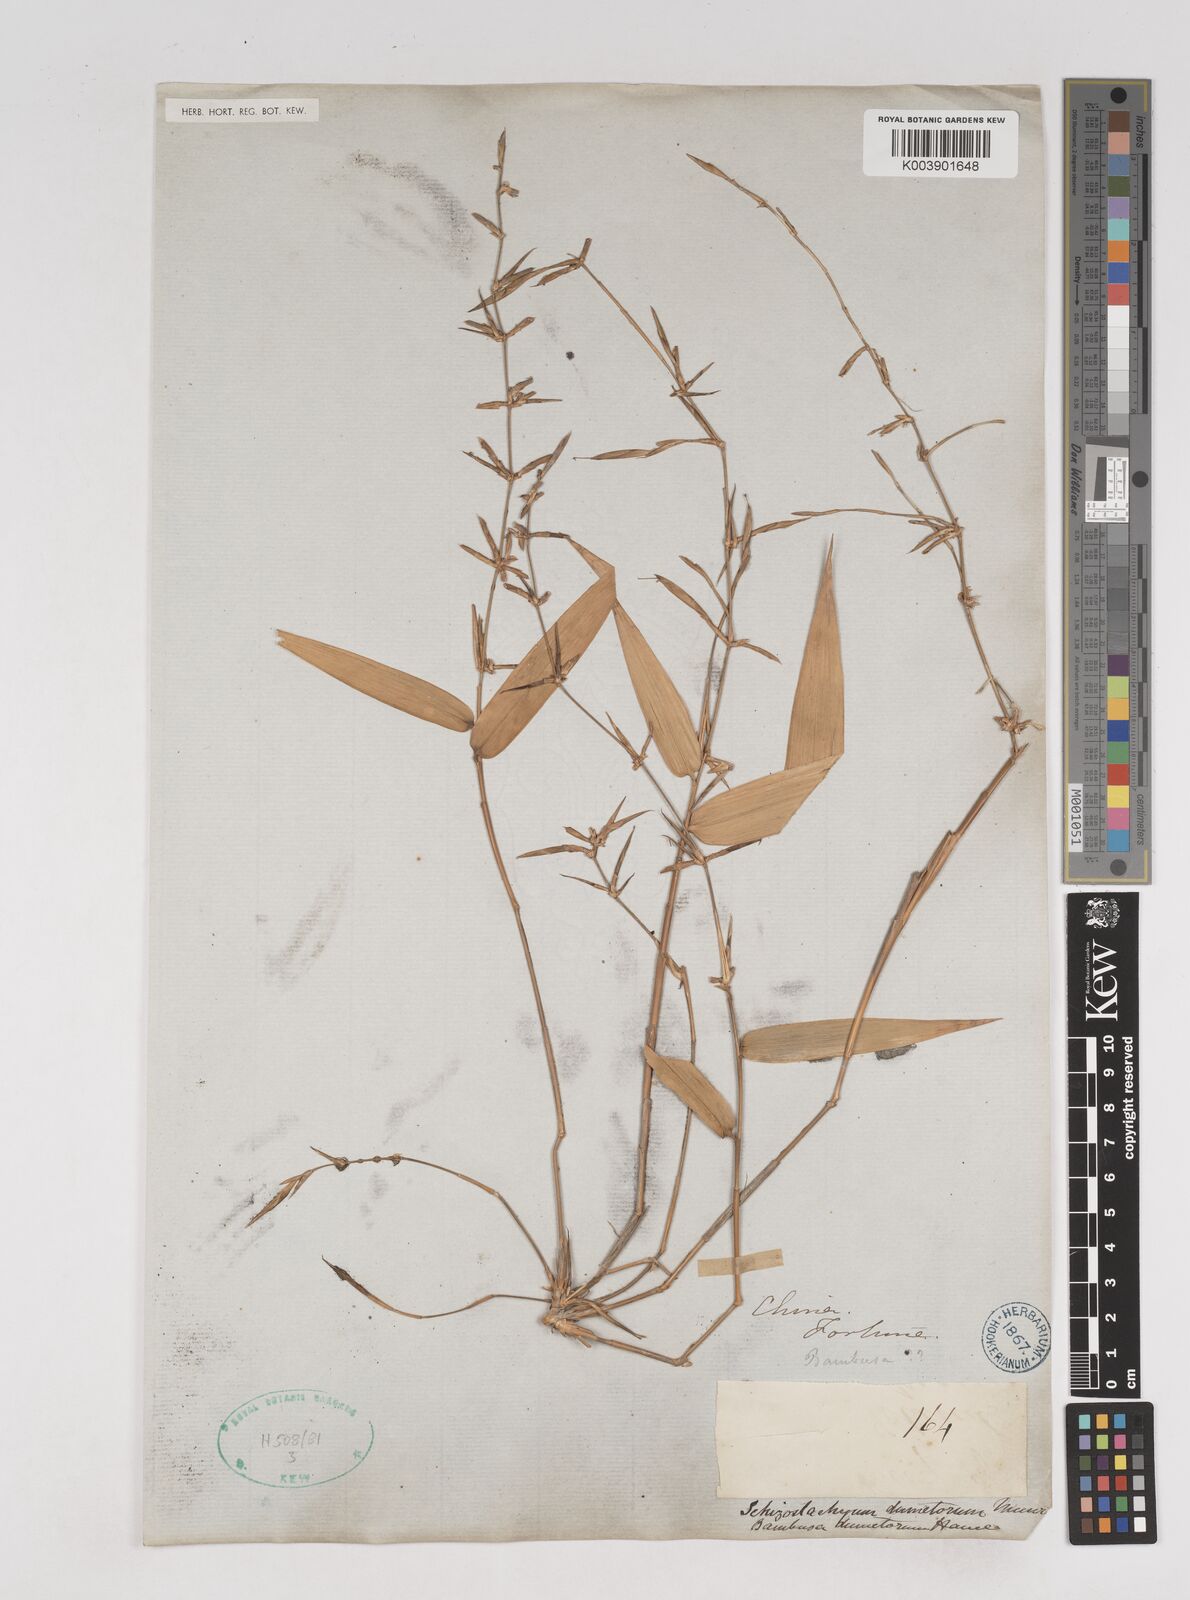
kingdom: Plantae
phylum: Tracheophyta
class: Liliopsida
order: Poales
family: Poaceae
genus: Schizostachyum
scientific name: Schizostachyum dumetorum
